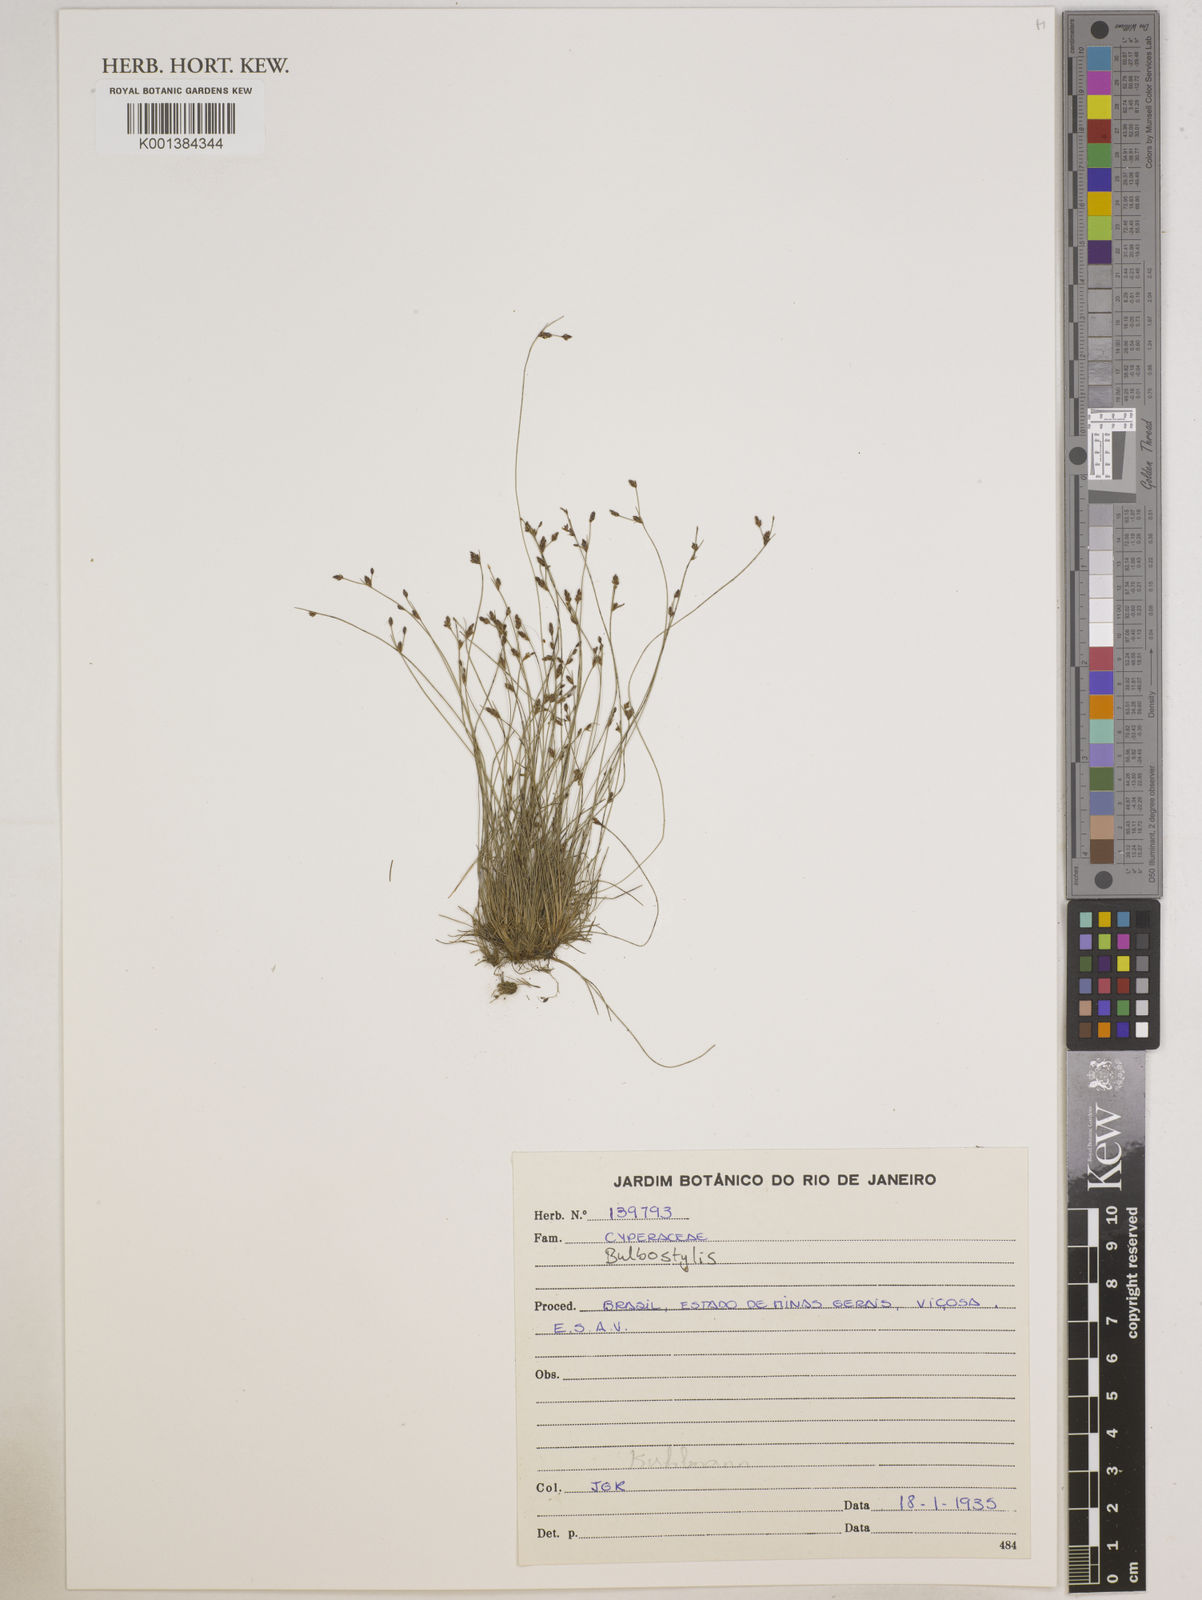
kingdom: Plantae
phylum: Tracheophyta
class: Liliopsida
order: Poales
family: Cyperaceae
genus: Bulbostylis
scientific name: Bulbostylis
